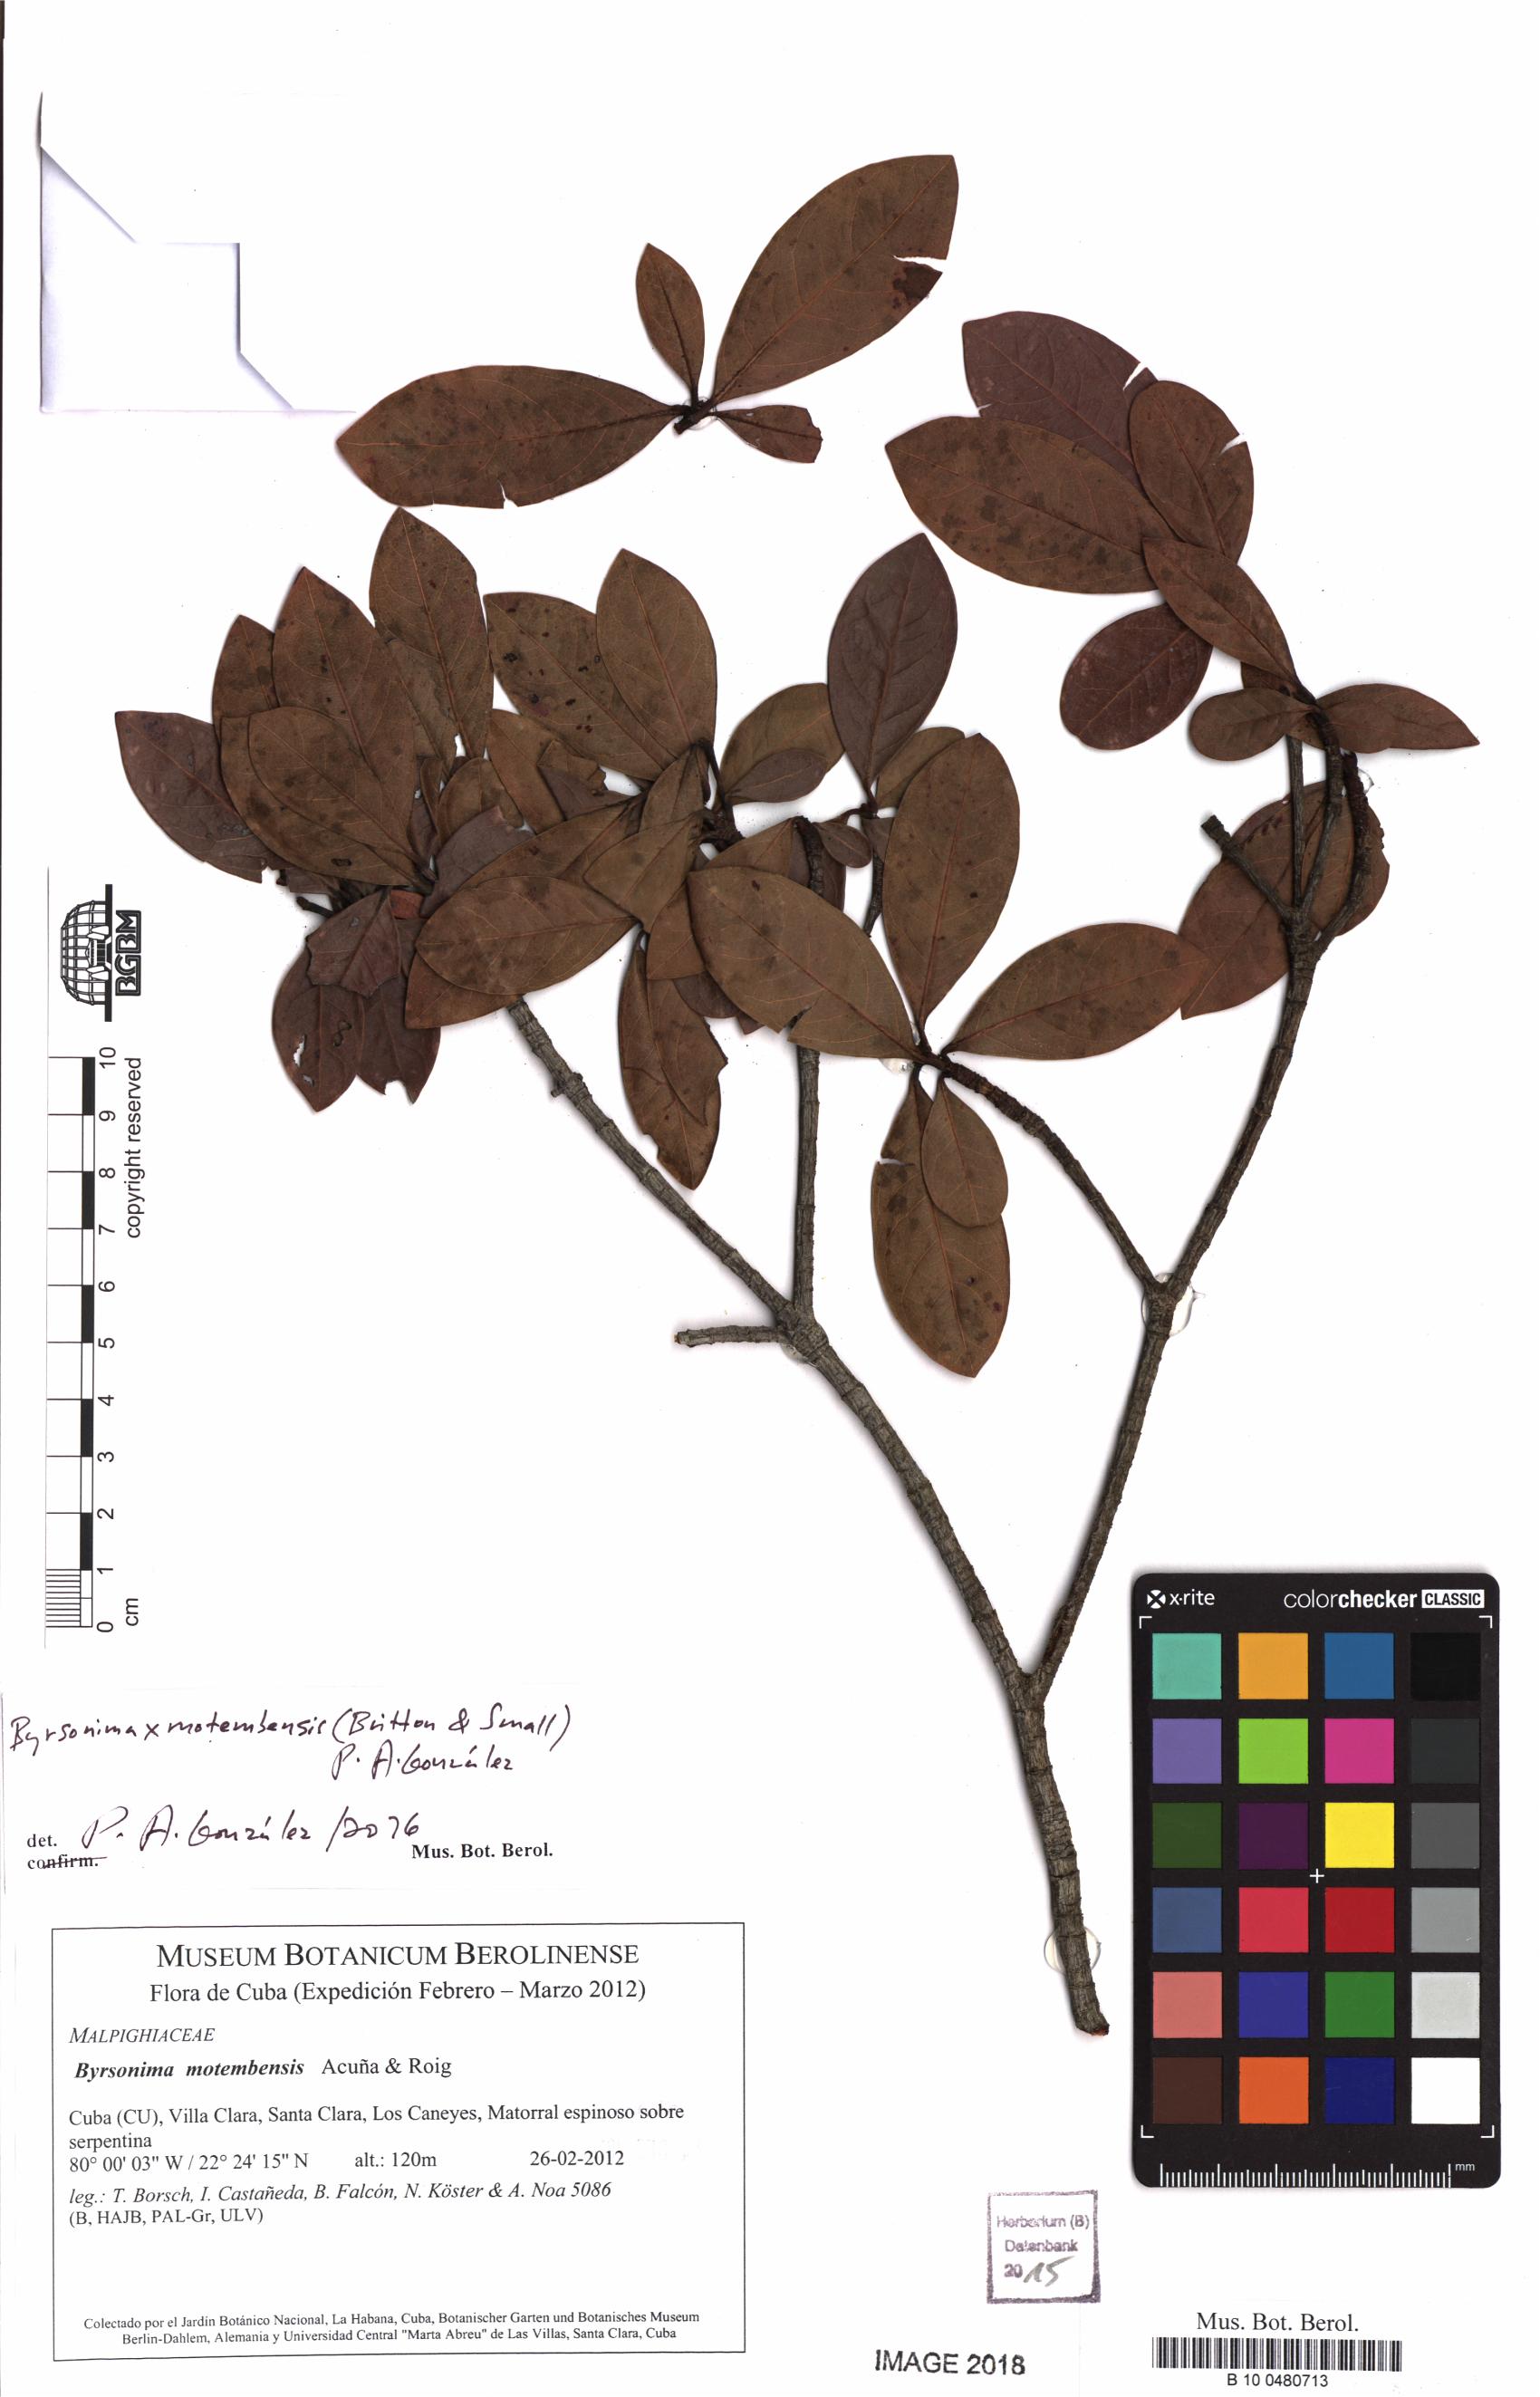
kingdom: Plantae
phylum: Tracheophyta
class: Magnoliopsida
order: Malpighiales
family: Malpighiaceae
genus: Byrsonima
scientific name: Byrsonima motembensis
